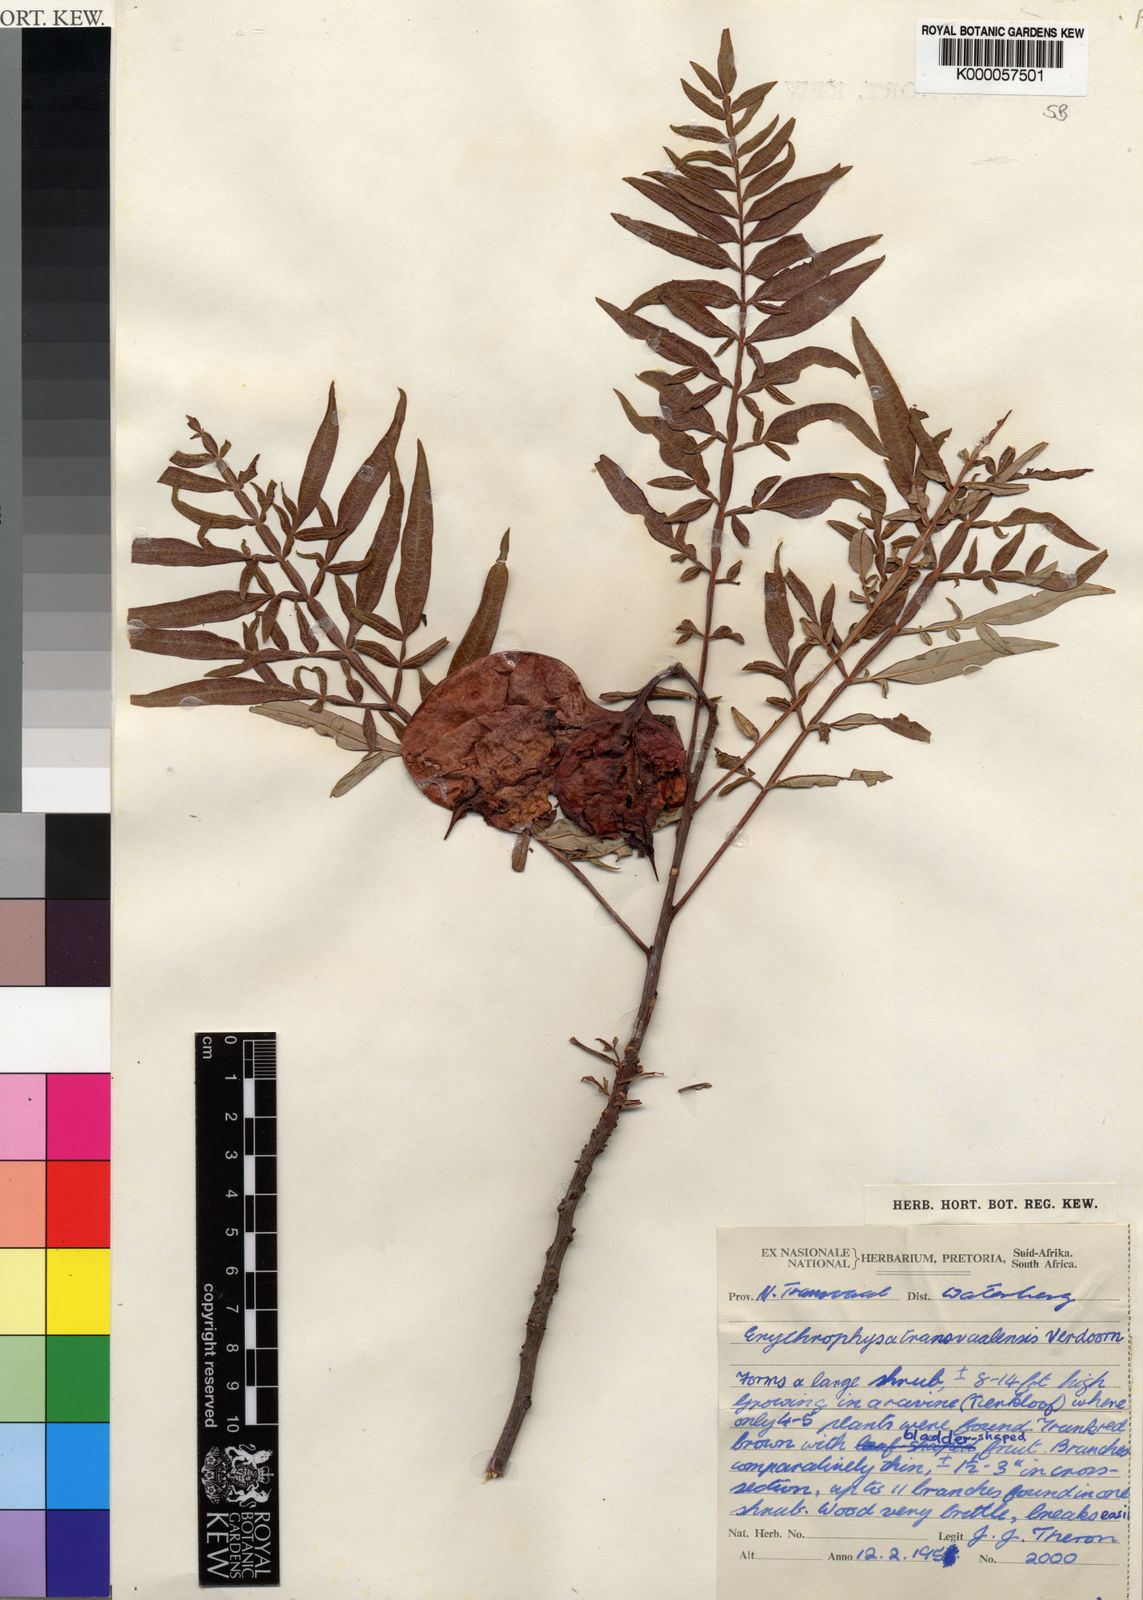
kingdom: Plantae
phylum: Tracheophyta
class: Magnoliopsida
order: Sapindales
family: Sapindaceae
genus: Erythrophysa
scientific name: Erythrophysa transvaalensis
